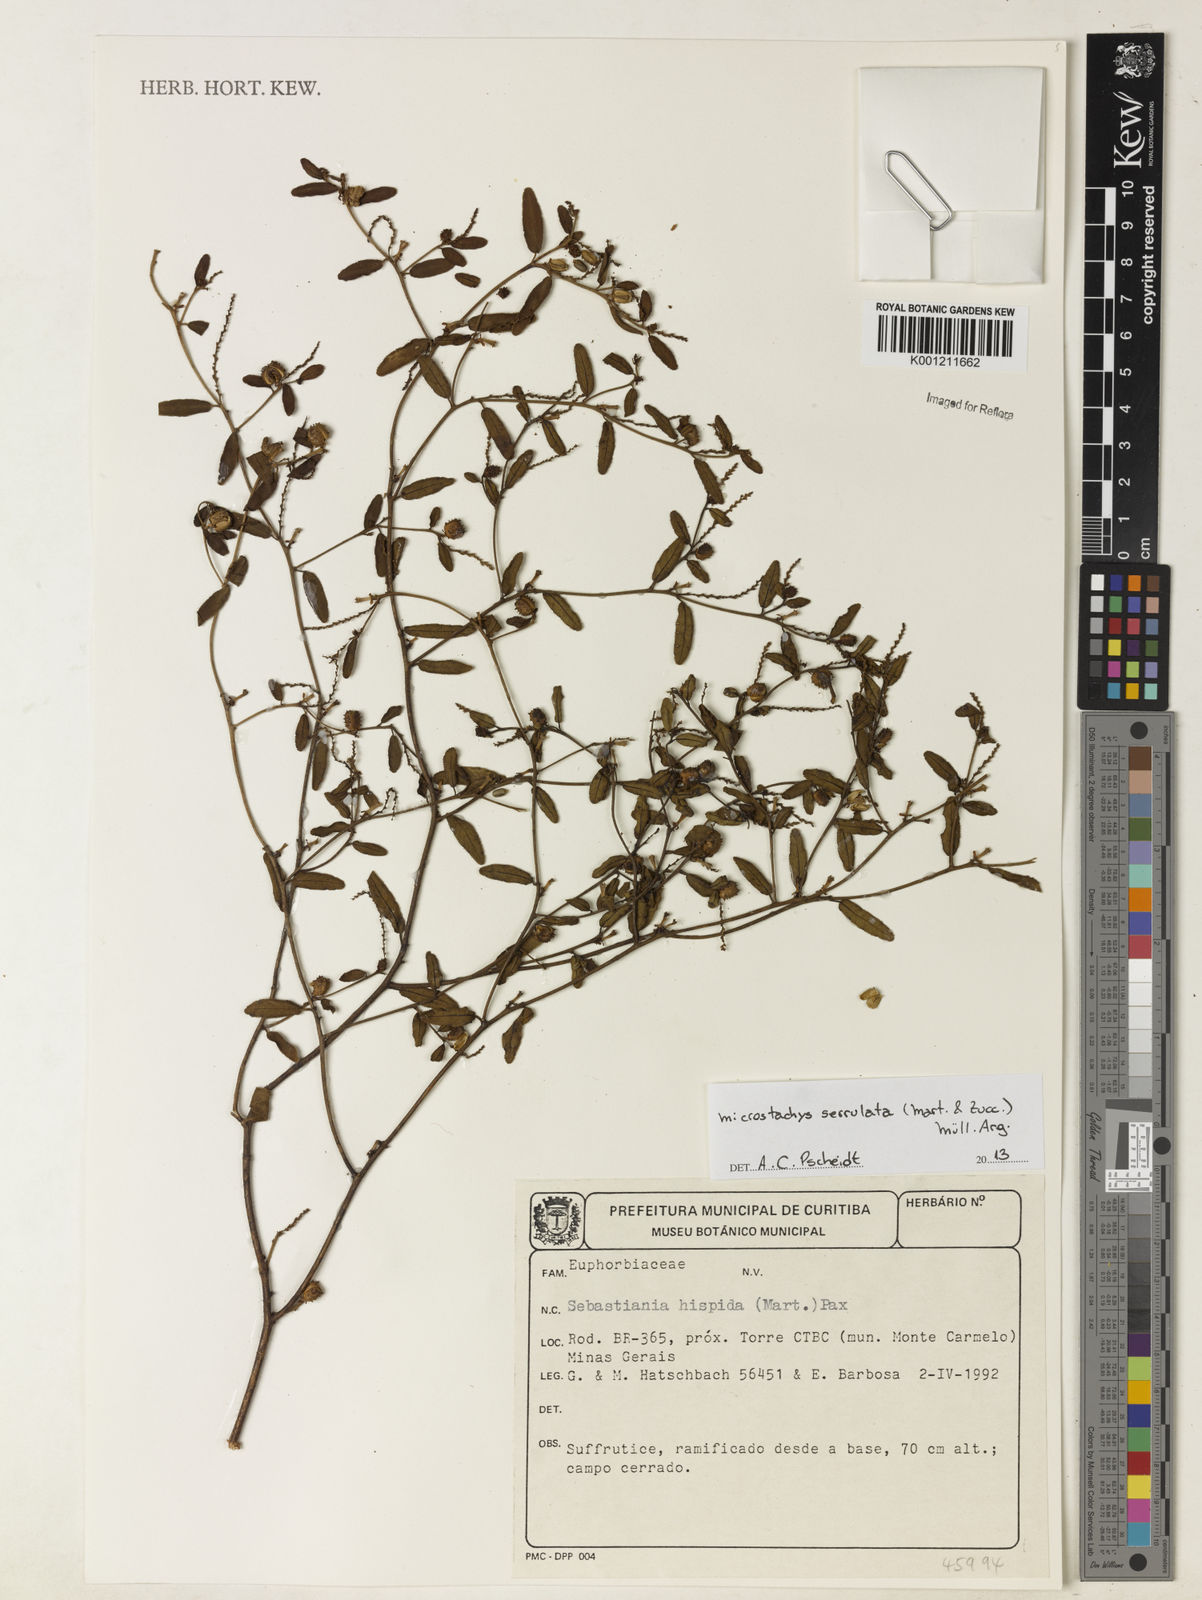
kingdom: Plantae
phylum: Tracheophyta
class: Magnoliopsida
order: Malpighiales
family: Euphorbiaceae
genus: Microstachys
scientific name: Microstachys
